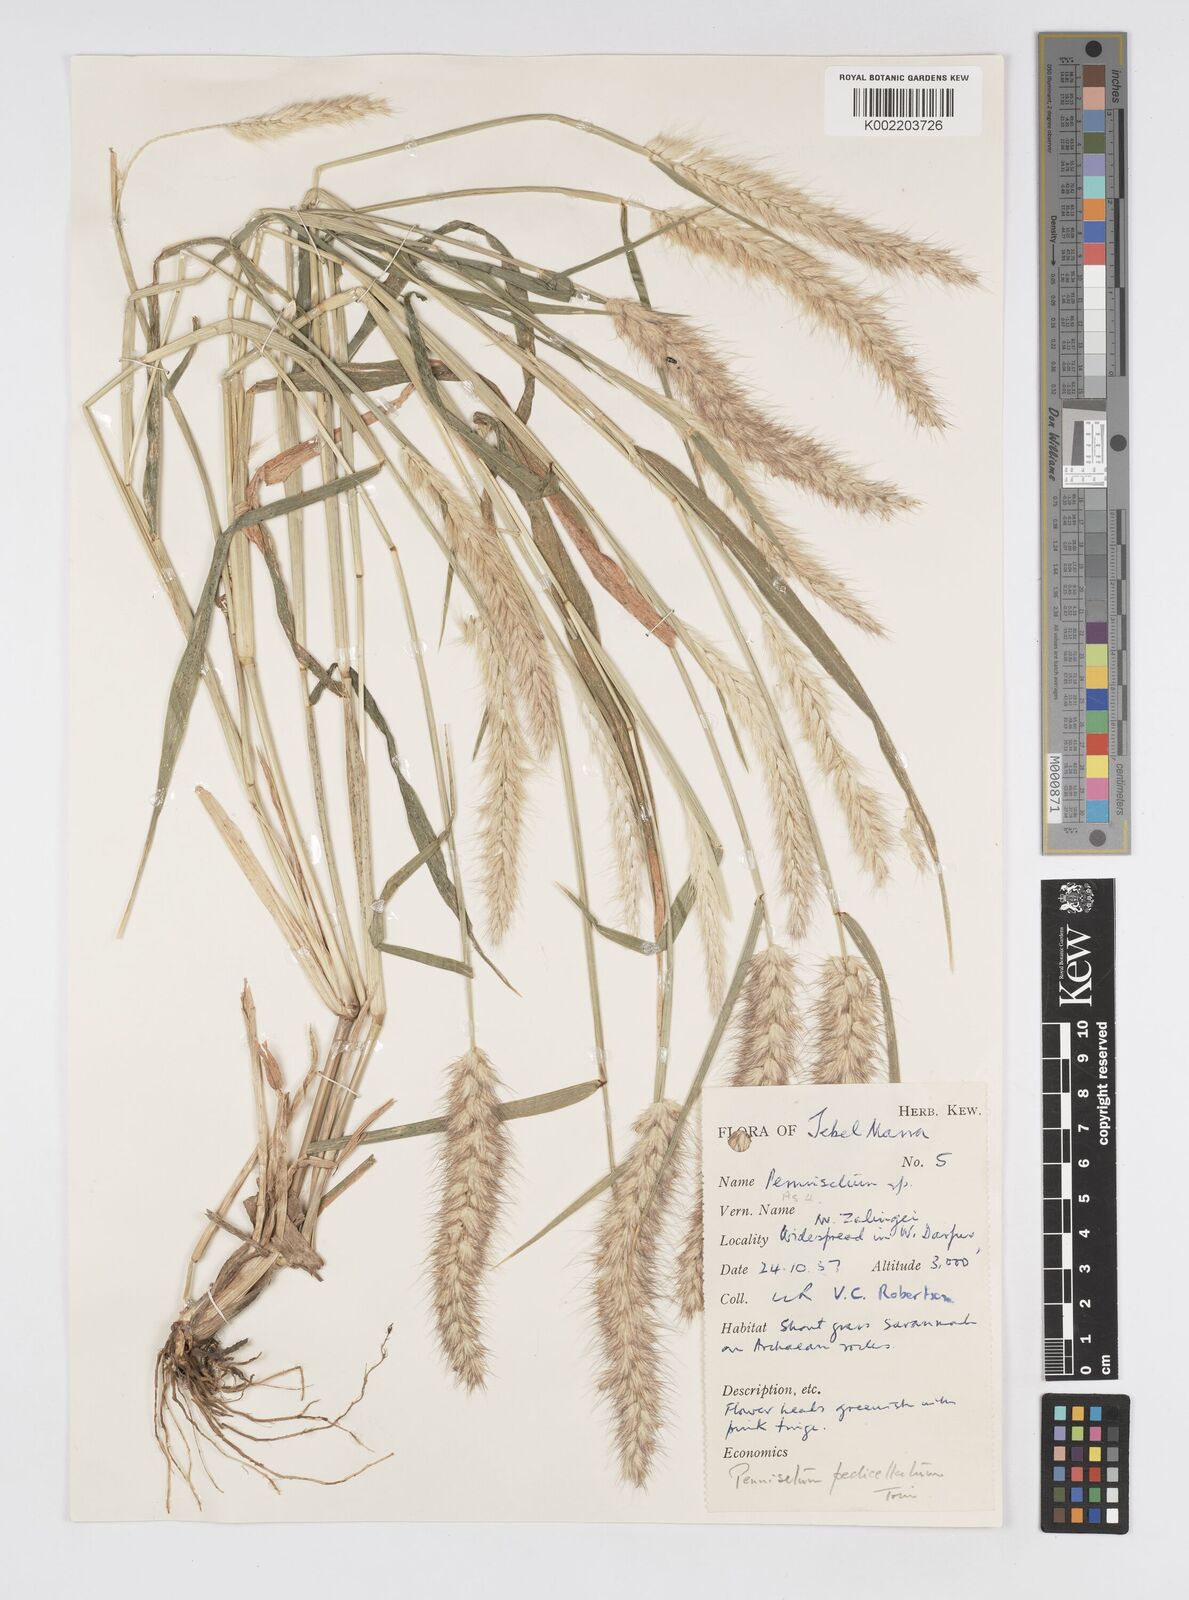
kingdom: Plantae
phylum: Tracheophyta
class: Liliopsida
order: Poales
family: Poaceae
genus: Cenchrus
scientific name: Cenchrus pedicellatus
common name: Hairy fountain grass
